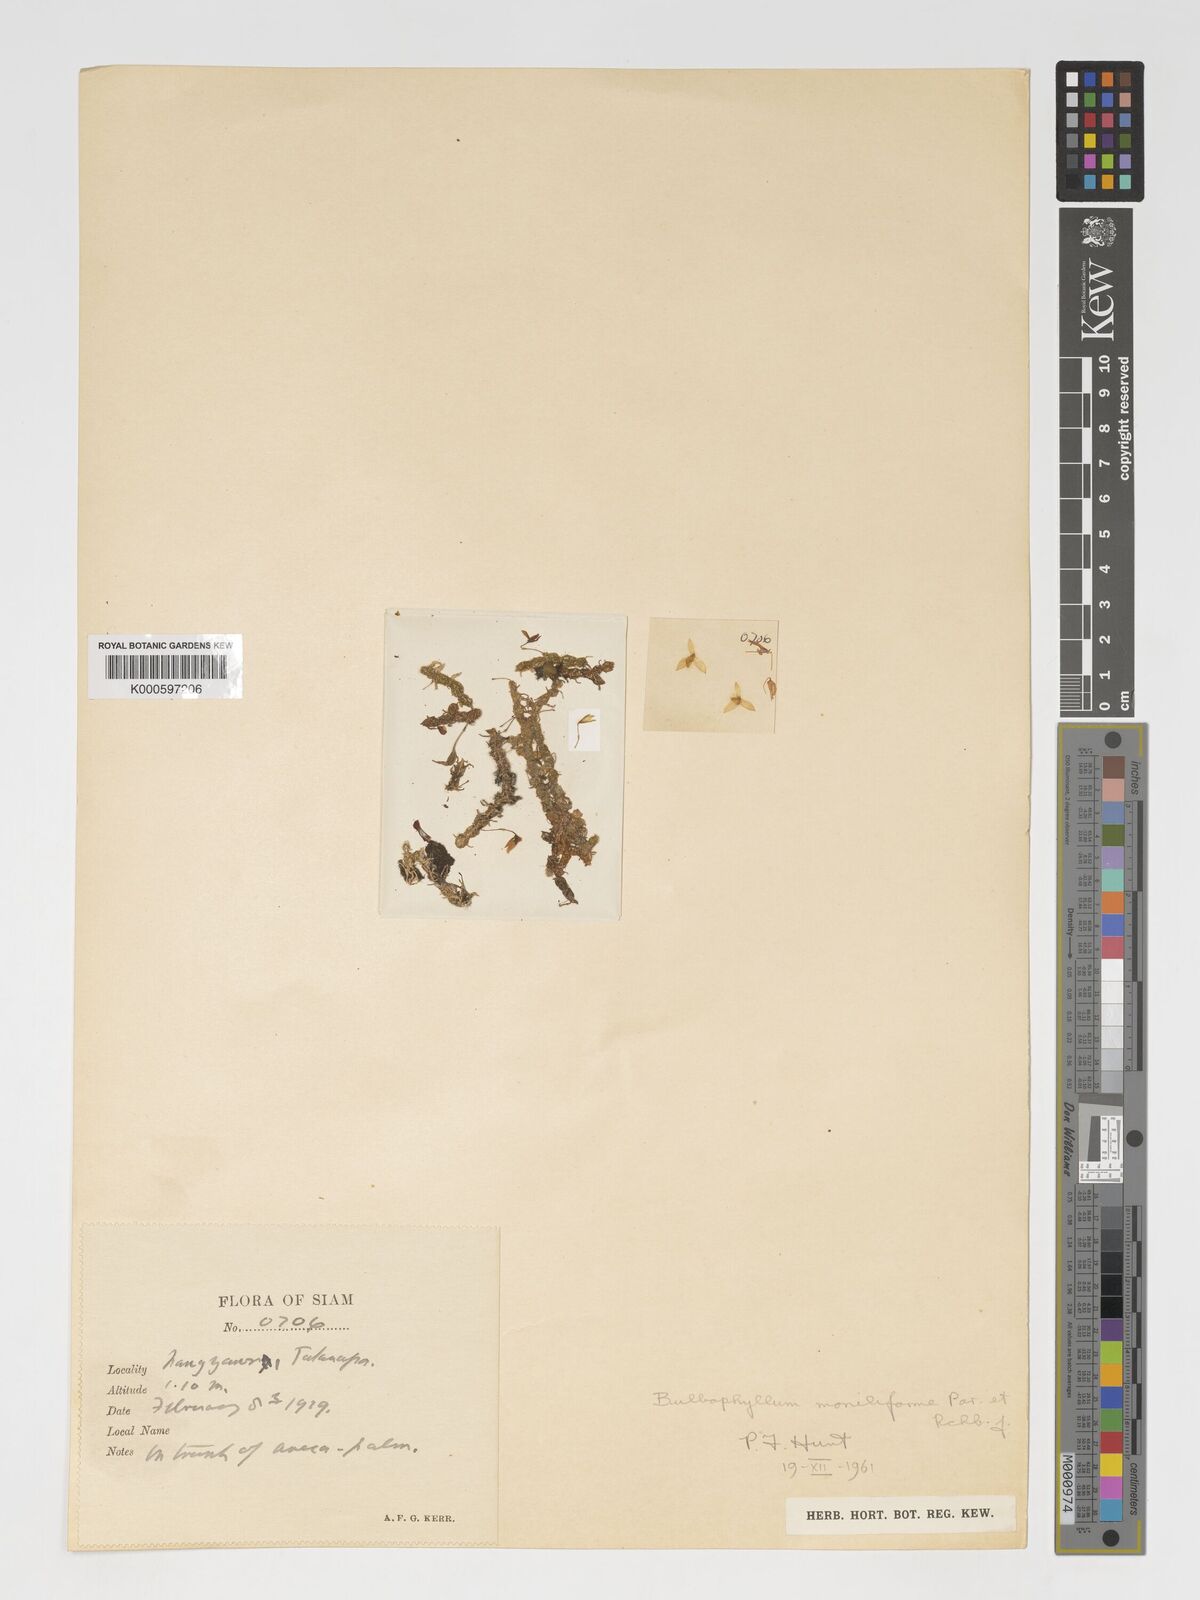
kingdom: Plantae
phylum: Tracheophyta
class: Liliopsida
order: Asparagales
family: Orchidaceae
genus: Bulbophyllum
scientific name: Bulbophyllum moniliforme
